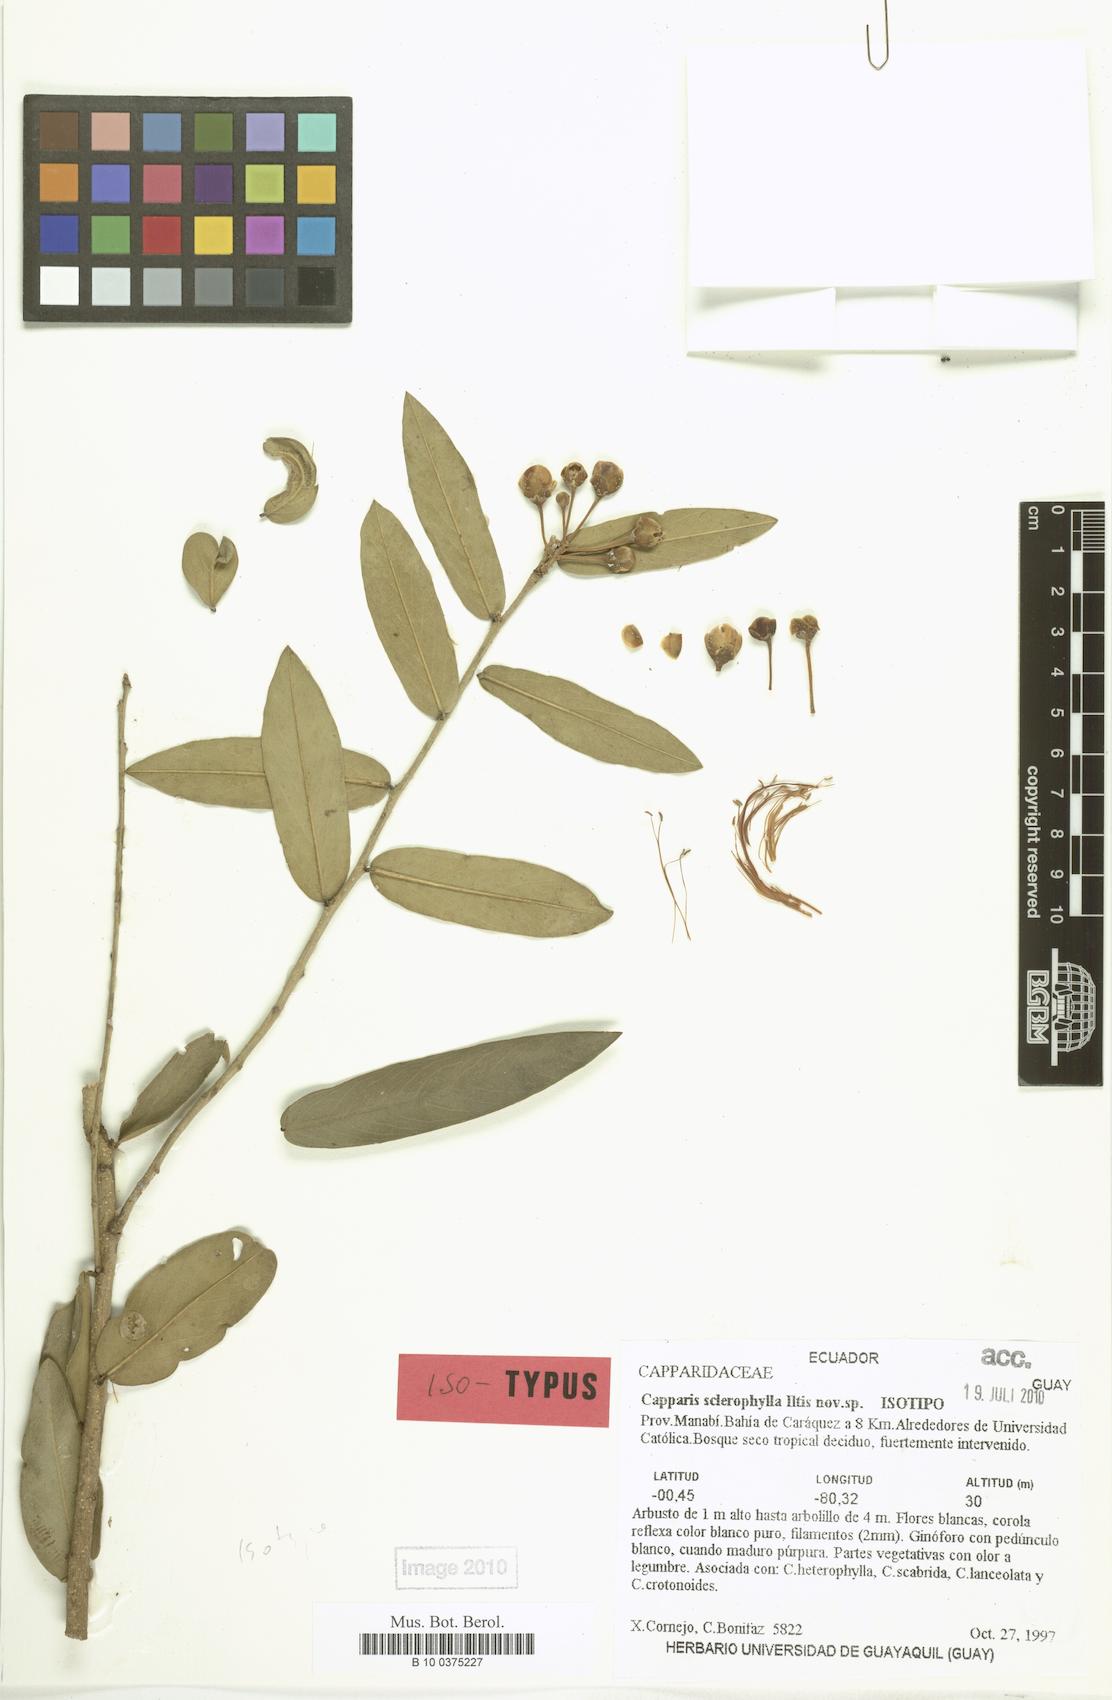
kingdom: Plantae
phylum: Tracheophyta
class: Magnoliopsida
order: Brassicales
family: Capparaceae
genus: Cynophalla
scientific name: Cynophalla sclerophylla
